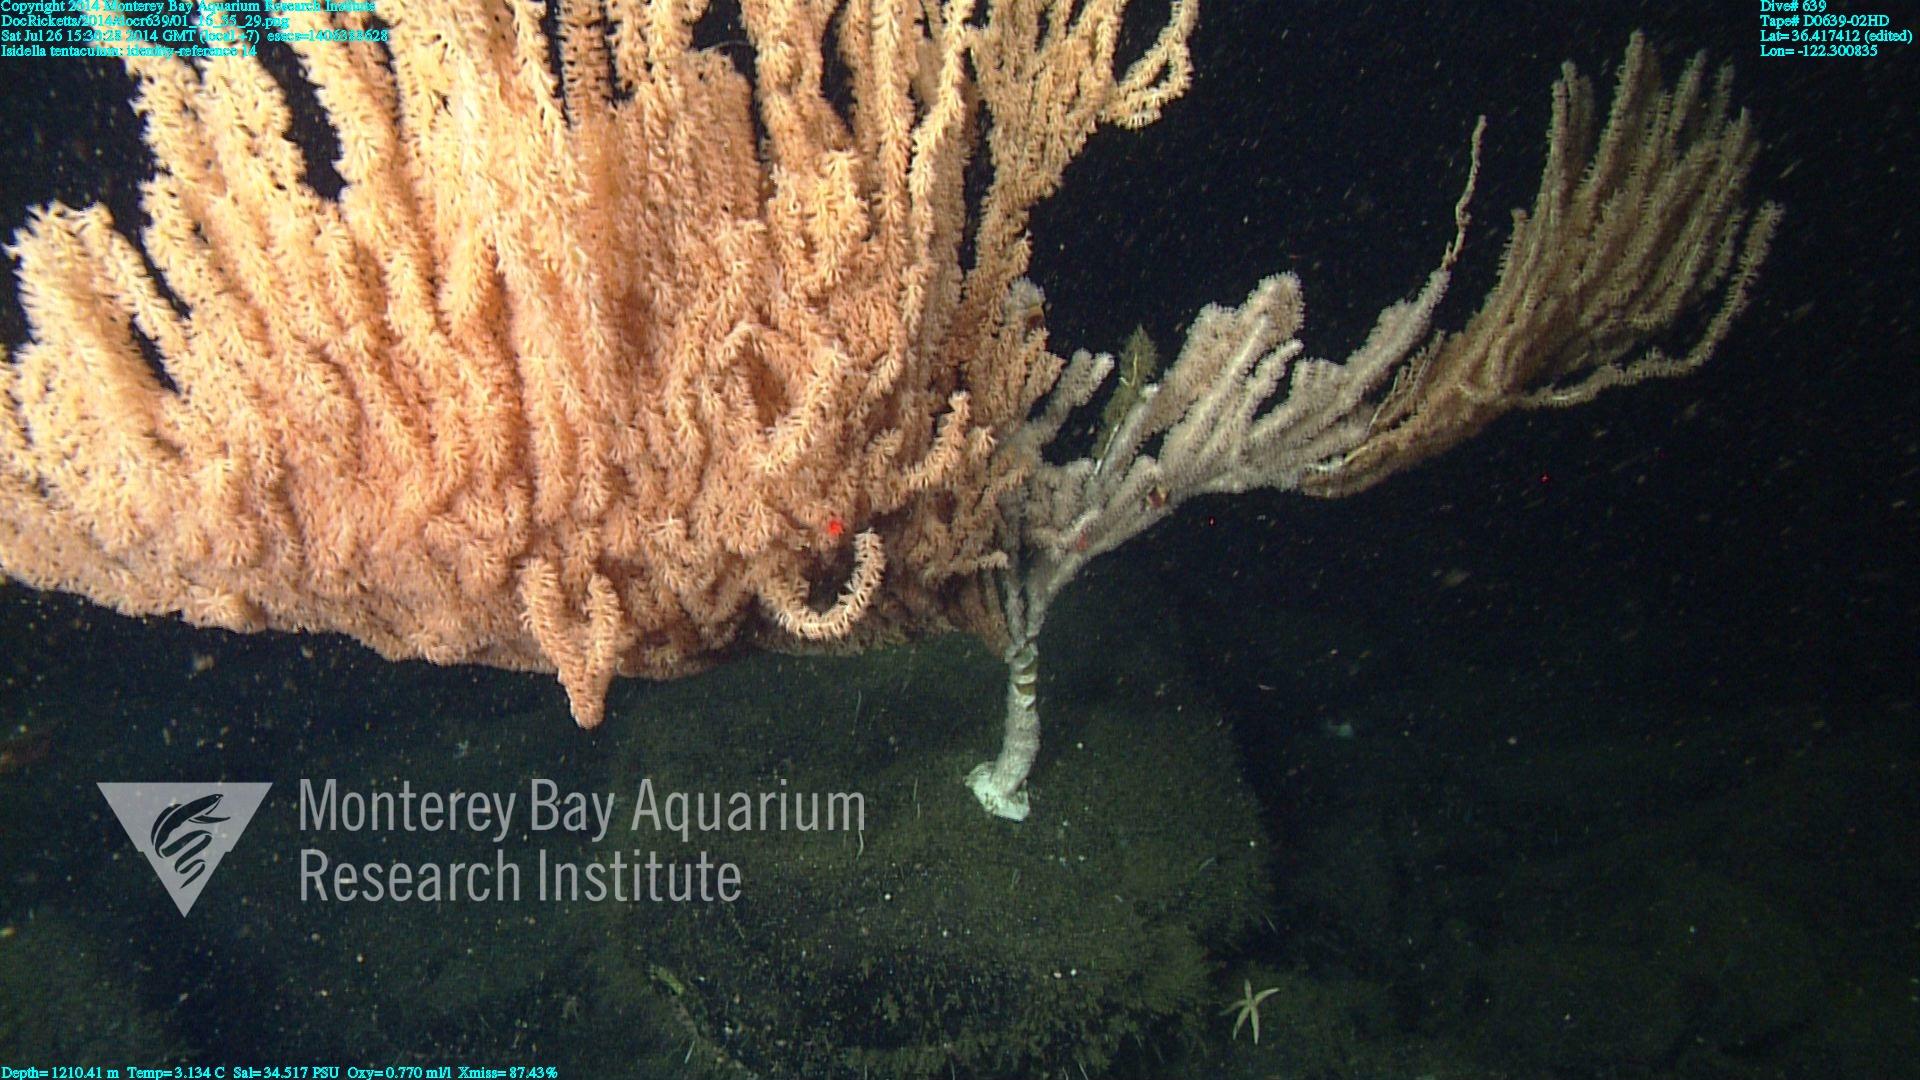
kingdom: Animalia
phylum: Cnidaria
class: Anthozoa
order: Scleralcyonacea
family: Keratoisididae
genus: Isidella
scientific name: Isidella tentaculum
